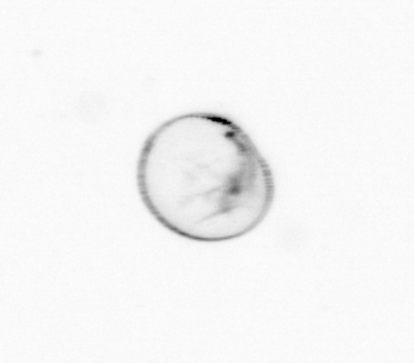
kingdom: Chromista
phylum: Myzozoa
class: Dinophyceae
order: Noctilucales
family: Noctilucaceae
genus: Noctiluca
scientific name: Noctiluca scintillans
